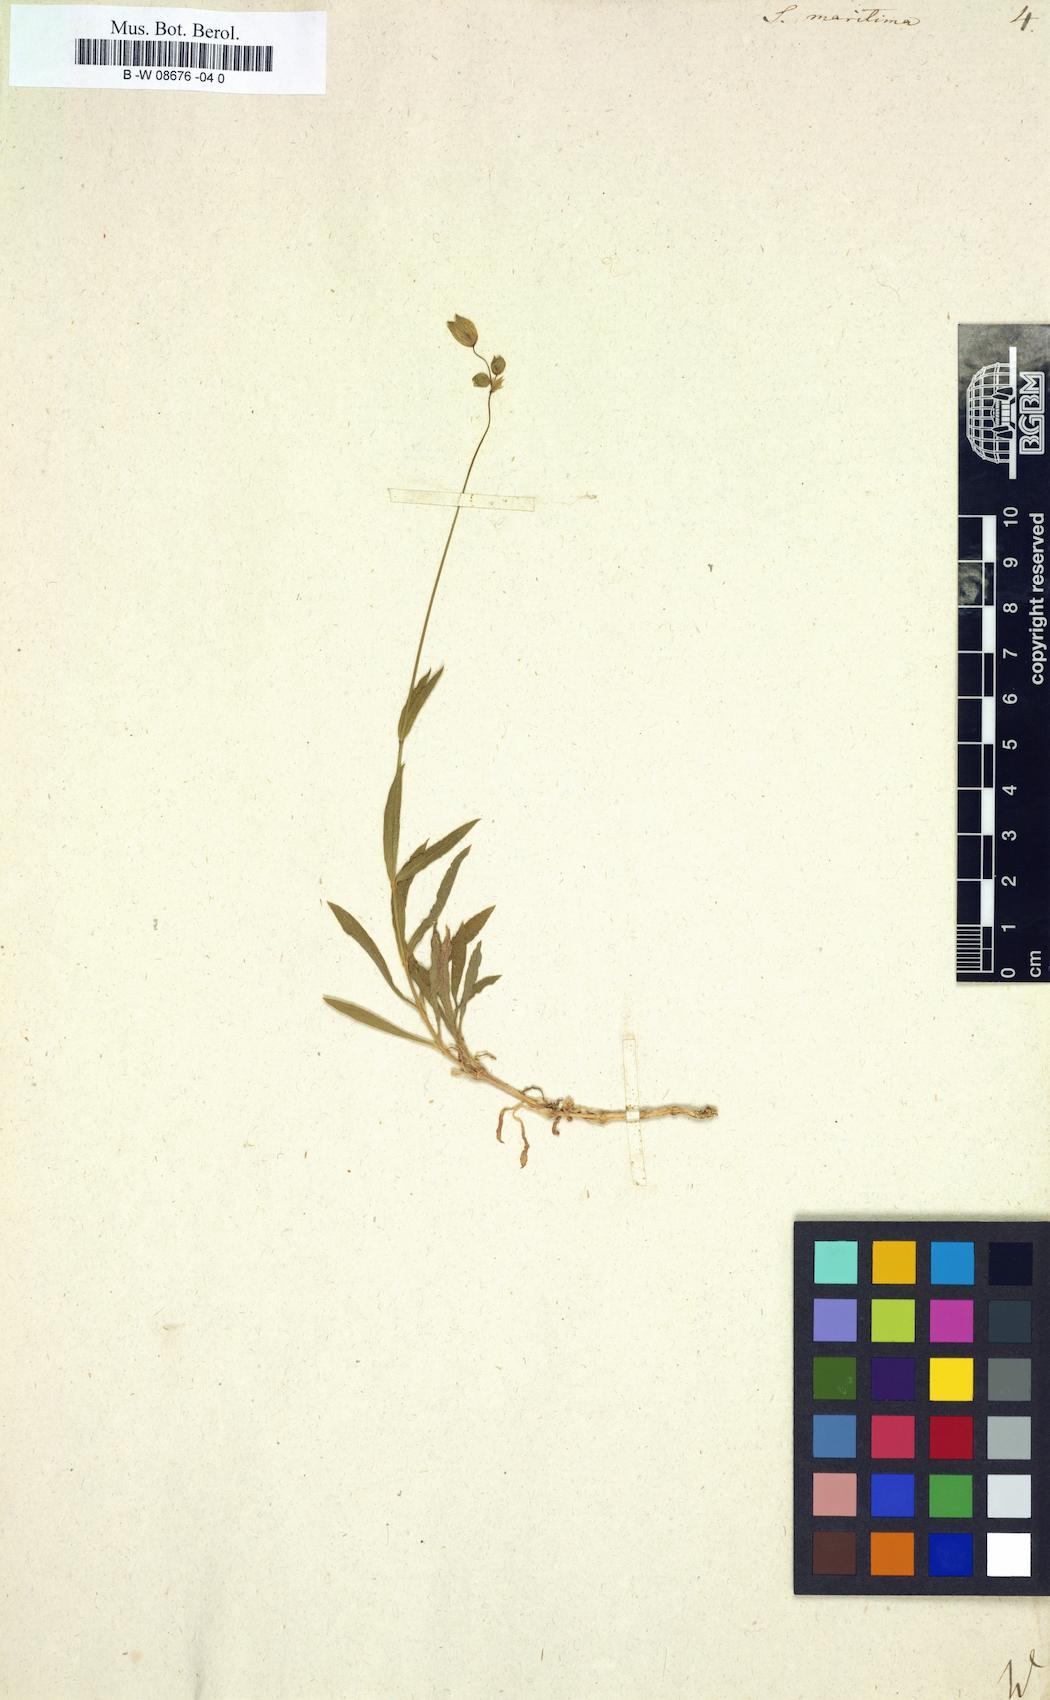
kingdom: Plantae
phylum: Tracheophyta
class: Magnoliopsida
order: Caryophyllales
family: Caryophyllaceae
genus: Silene
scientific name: Silene
